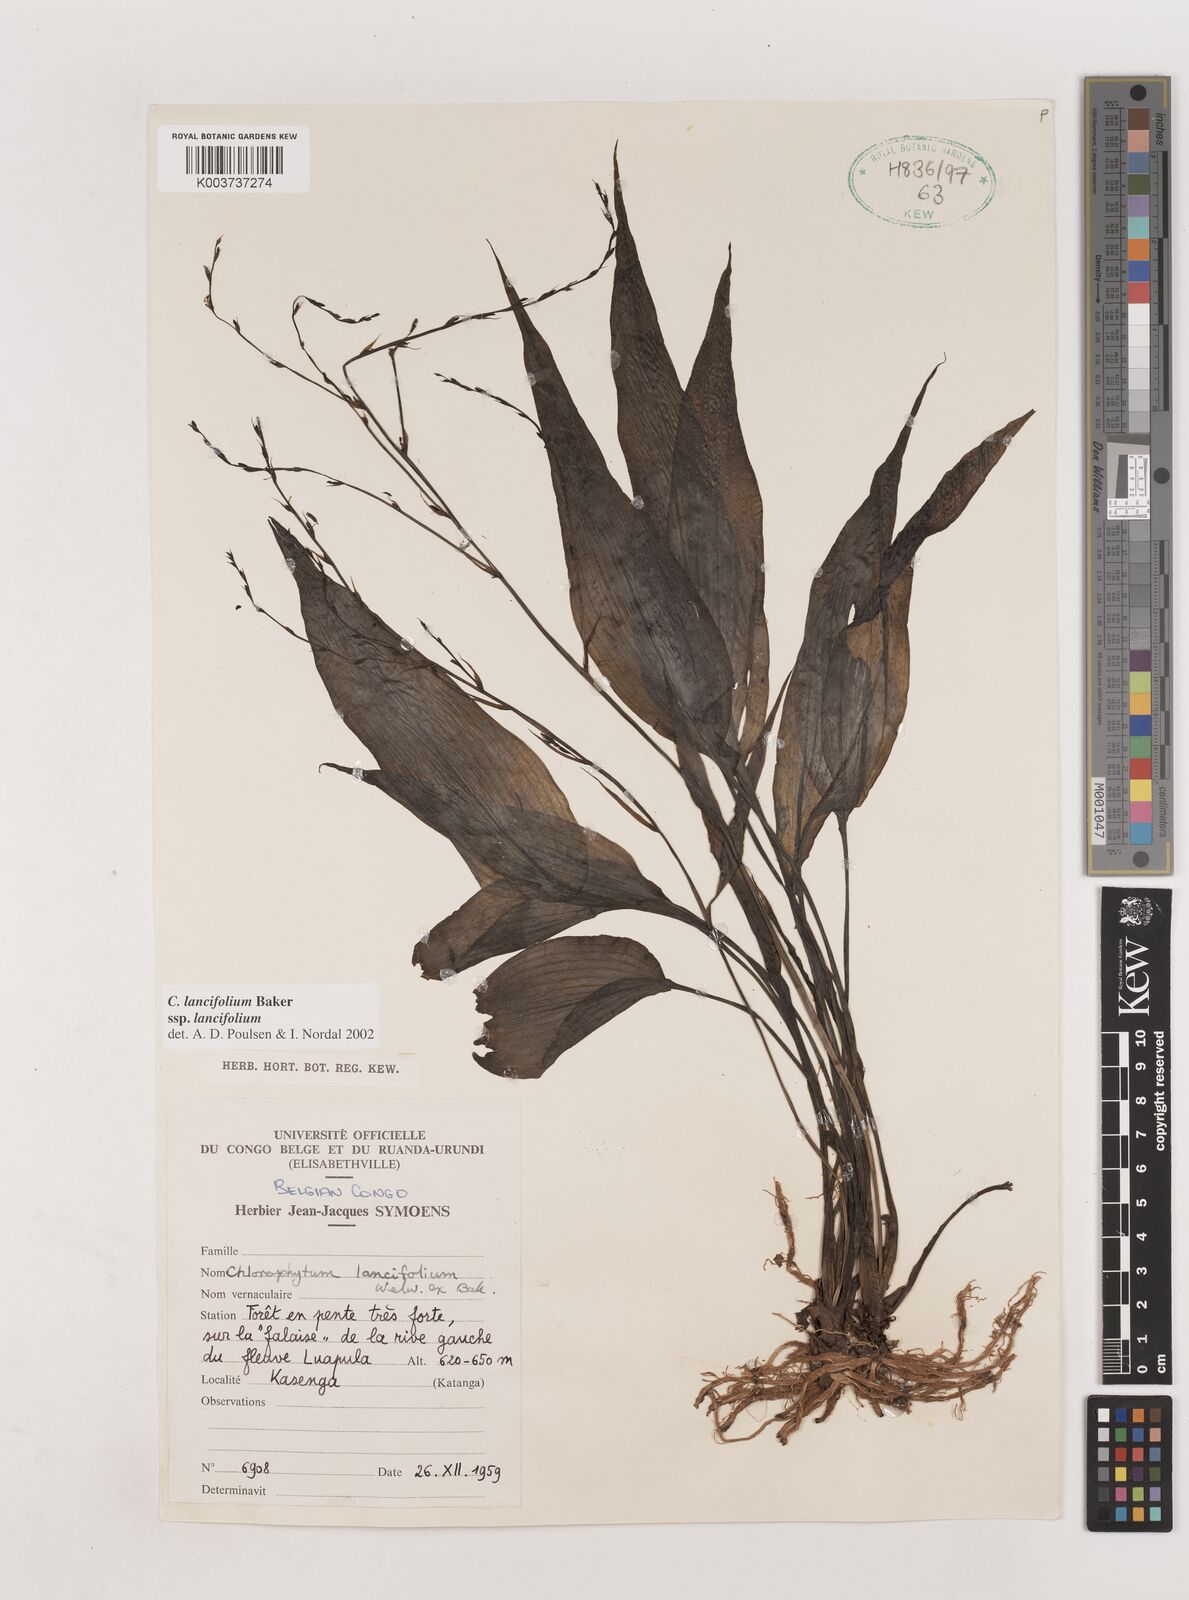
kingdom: Plantae
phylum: Tracheophyta
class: Liliopsida
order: Asparagales
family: Asparagaceae
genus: Chlorophytum
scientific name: Chlorophytum lancifolium
